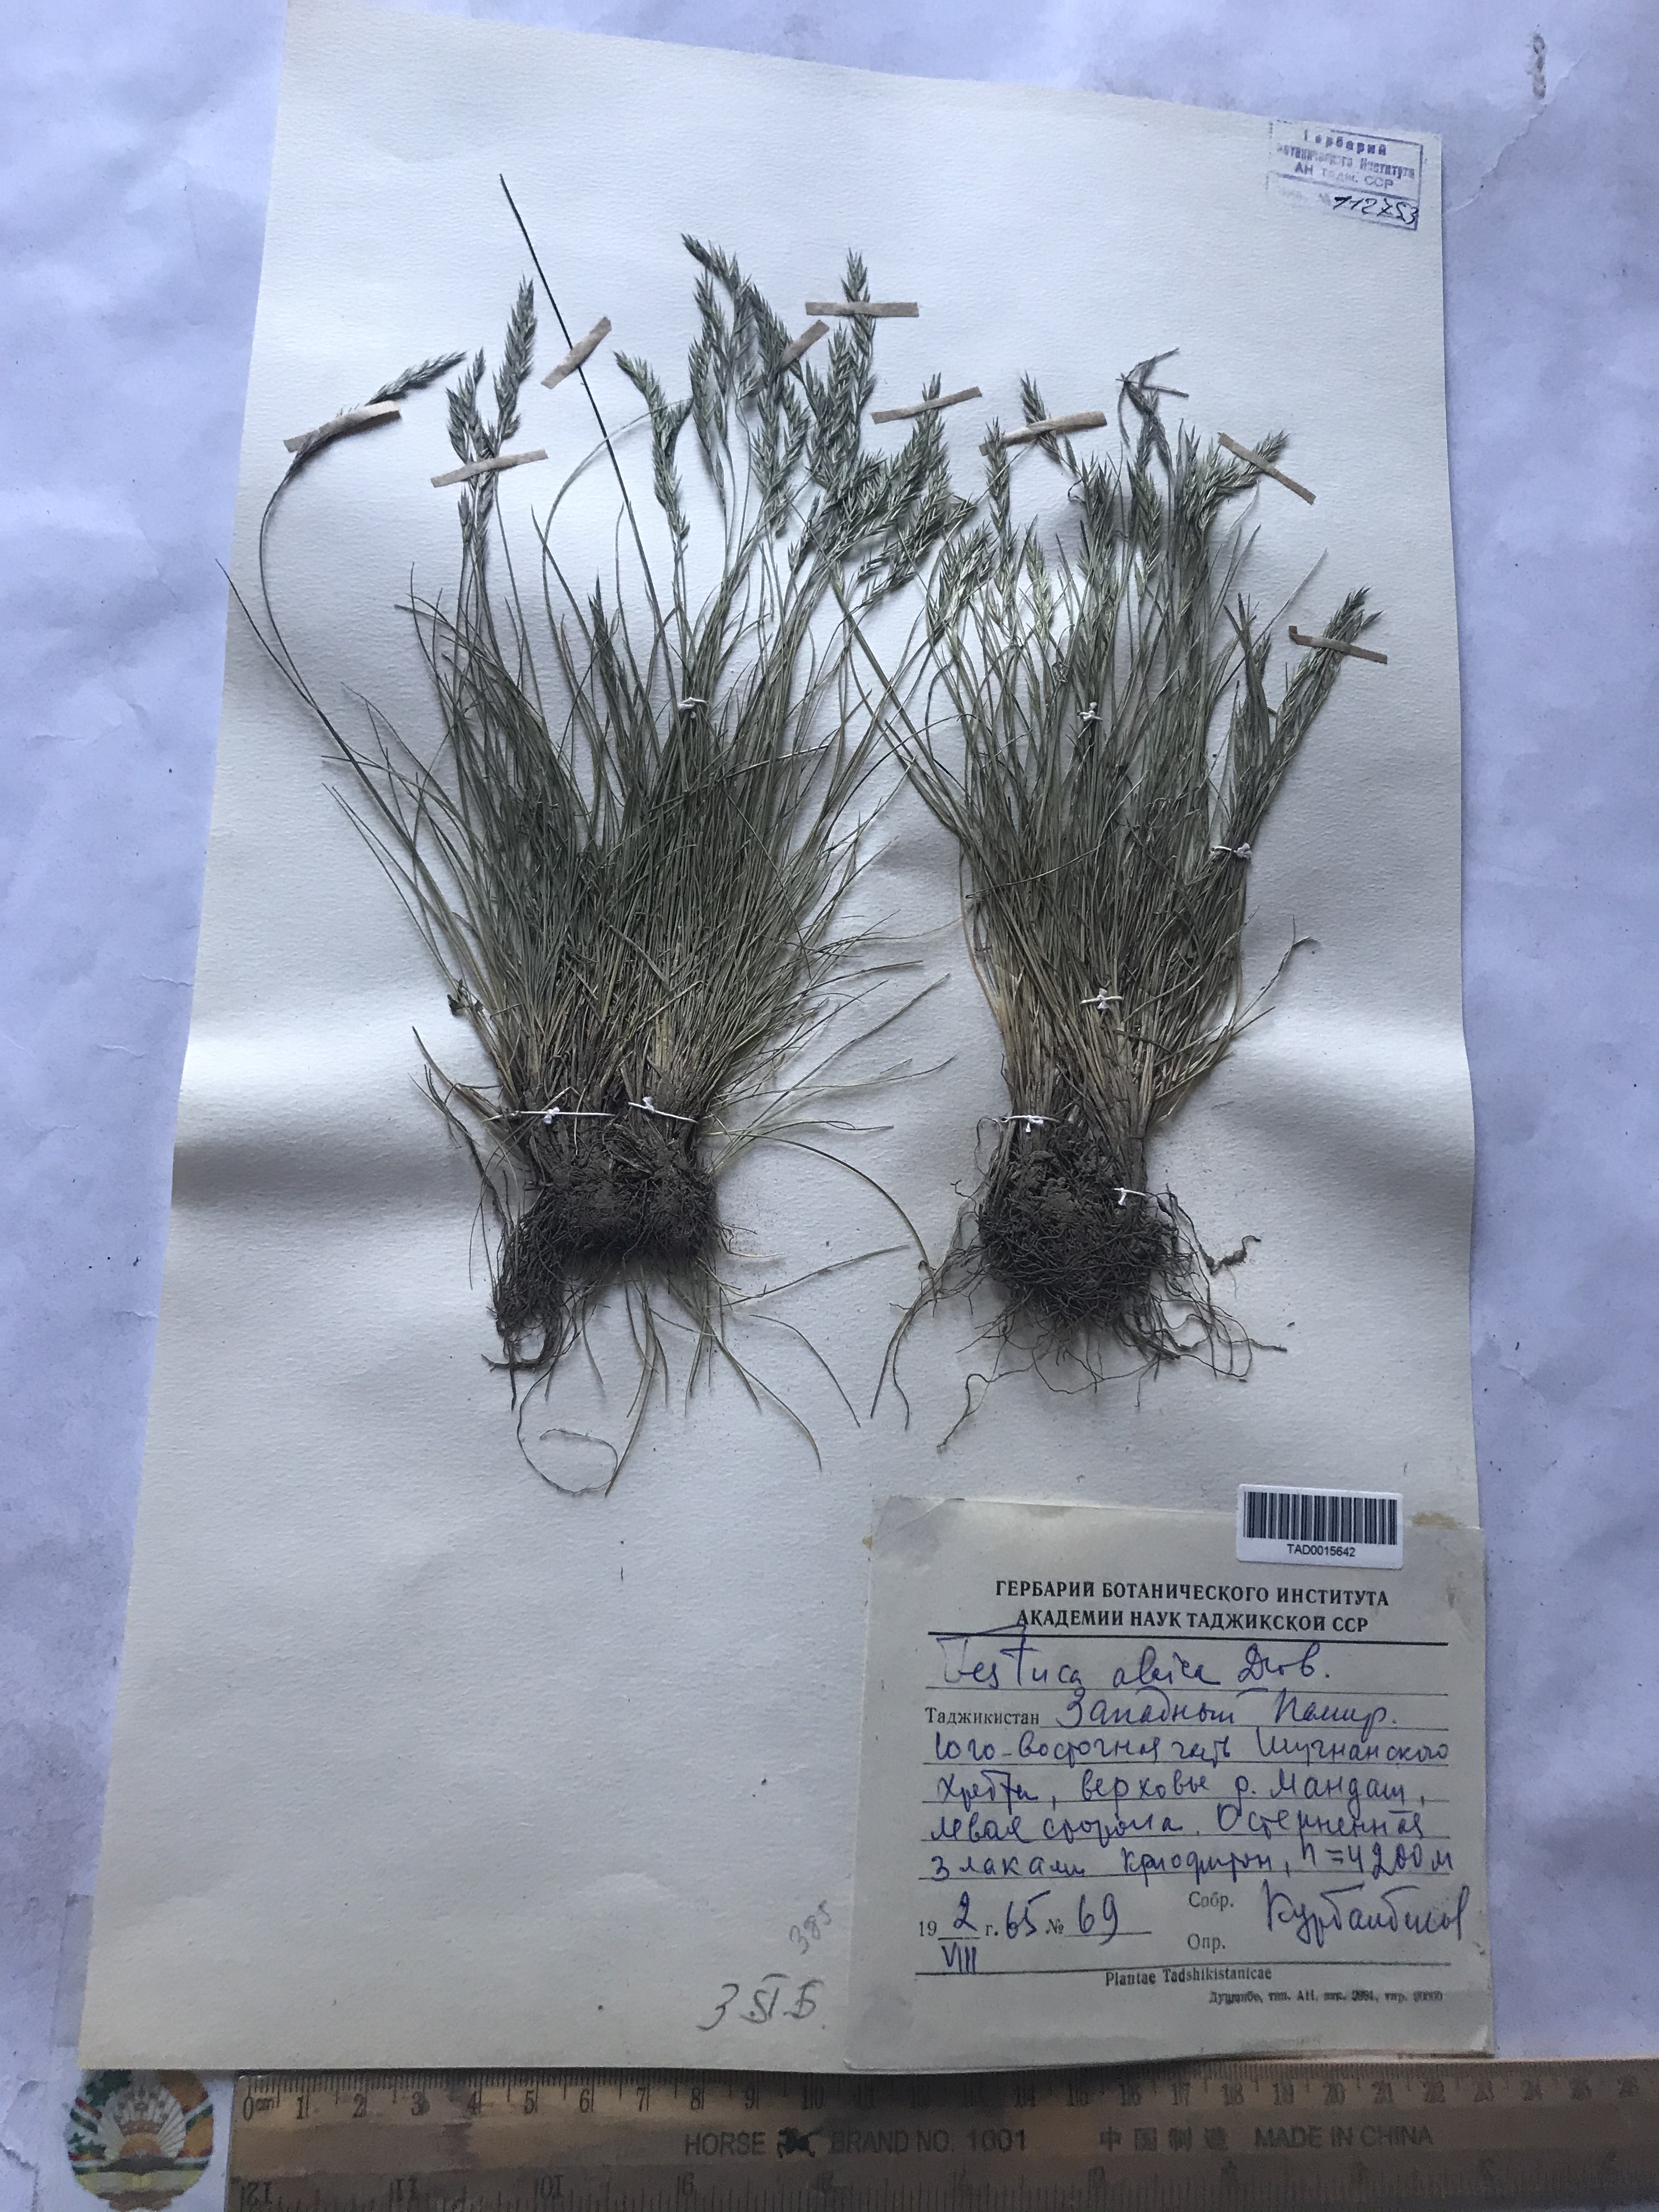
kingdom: Plantae
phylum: Tracheophyta
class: Liliopsida
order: Poales
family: Poaceae
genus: Festuca
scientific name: Festuca alaica
